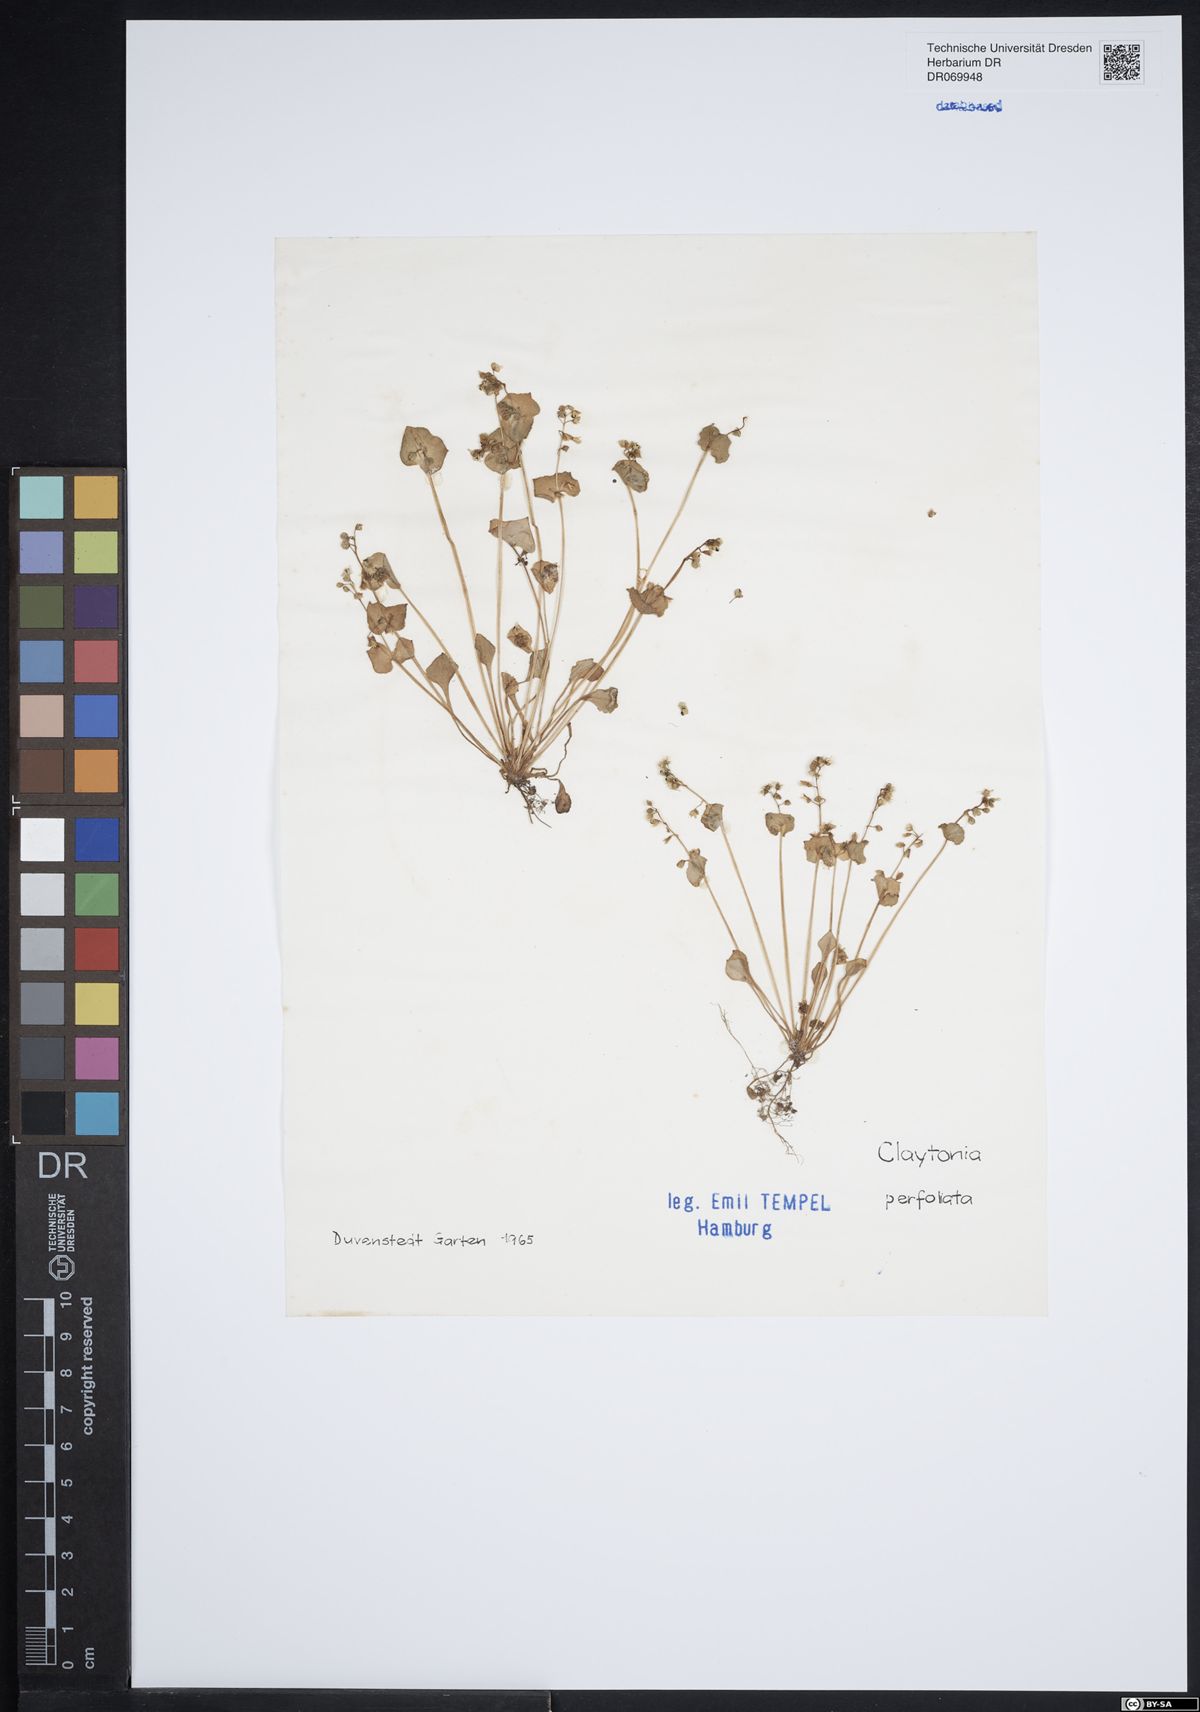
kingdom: Plantae
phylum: Tracheophyta
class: Magnoliopsida
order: Caryophyllales
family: Montiaceae
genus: Claytonia
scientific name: Claytonia perfoliata
